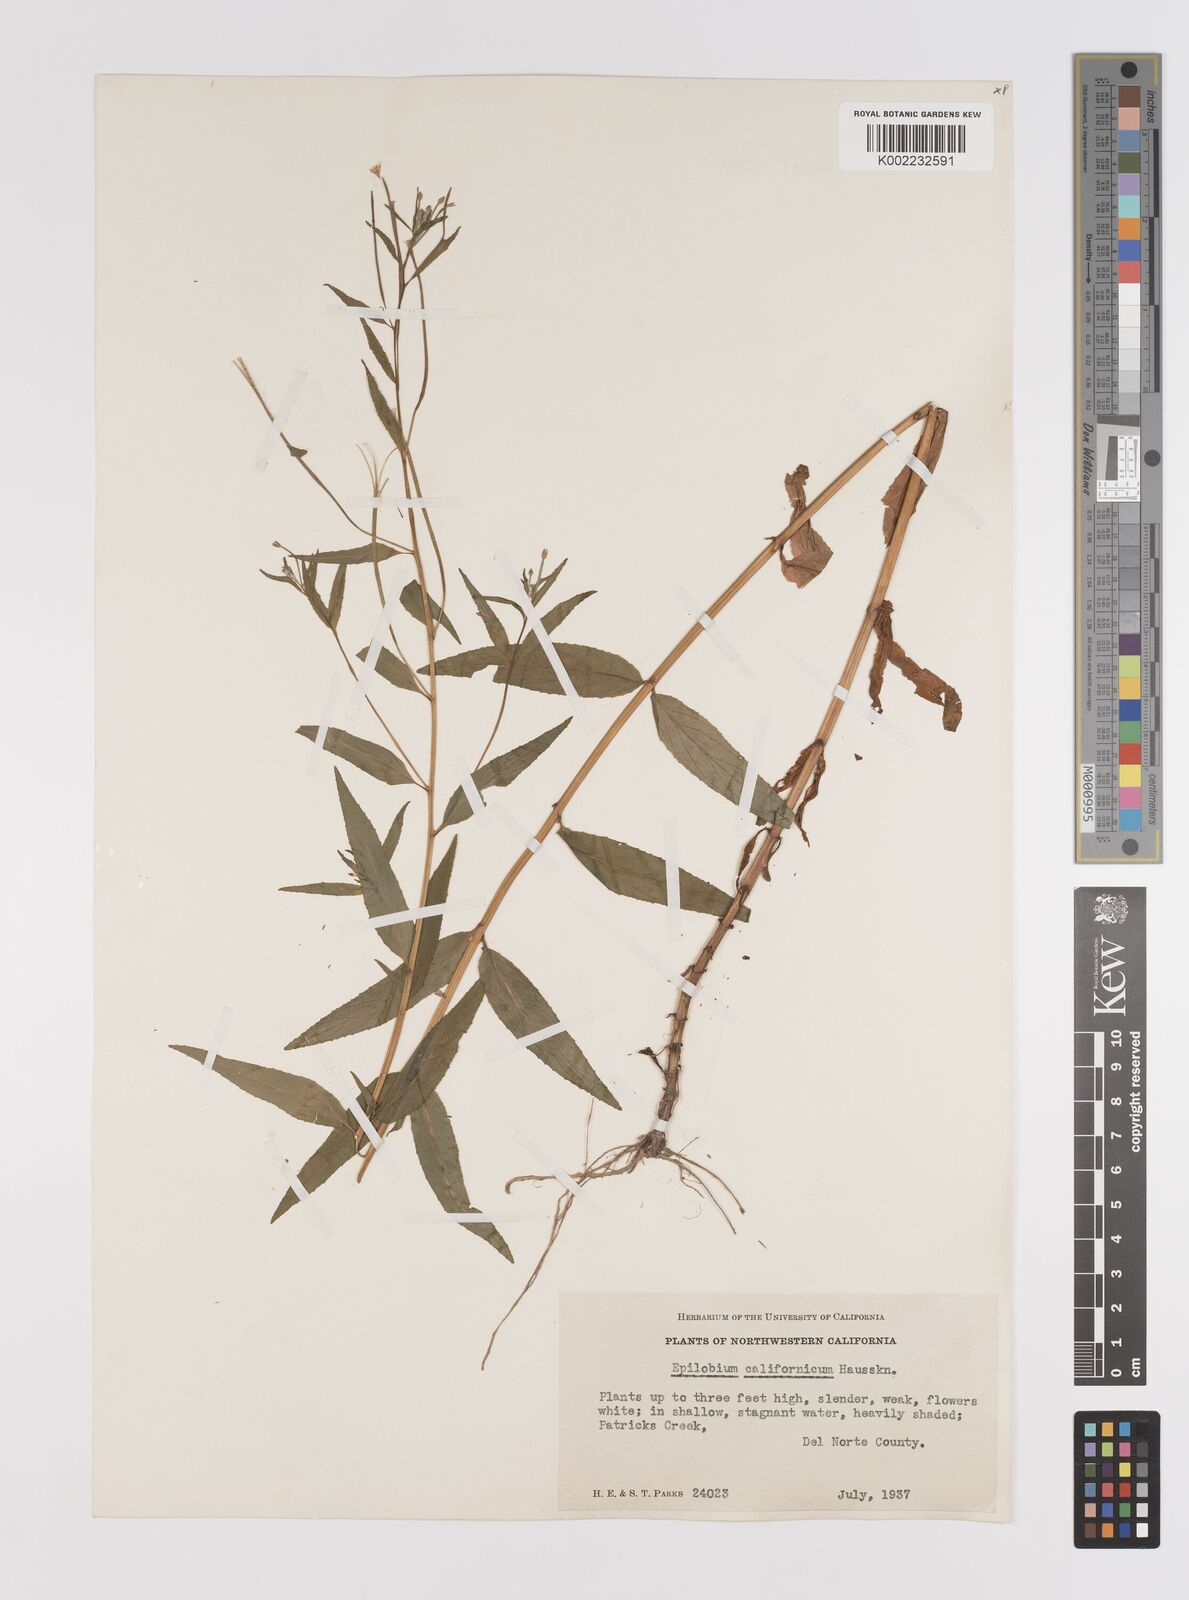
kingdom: Plantae
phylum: Tracheophyta
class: Magnoliopsida
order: Myrtales
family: Onagraceae
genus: Epilobium
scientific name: Epilobium ciliatum
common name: American willowherb
